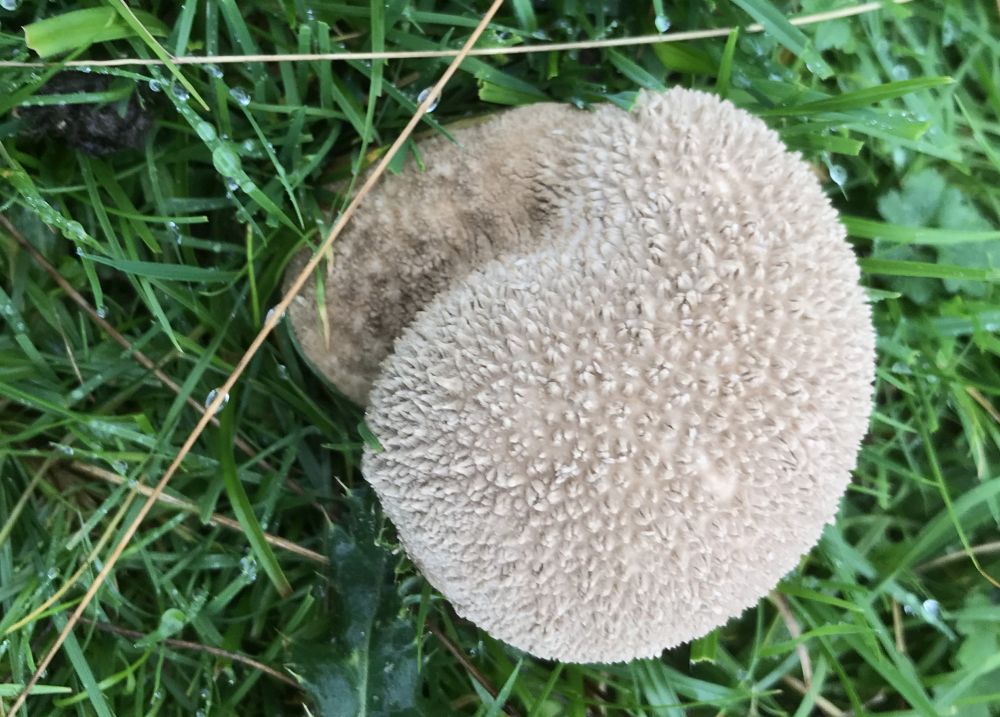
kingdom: Fungi
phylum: Basidiomycota
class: Agaricomycetes
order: Agaricales
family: Lycoperdaceae
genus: Bovistella
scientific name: Bovistella utriformis
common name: skællet støvbold
